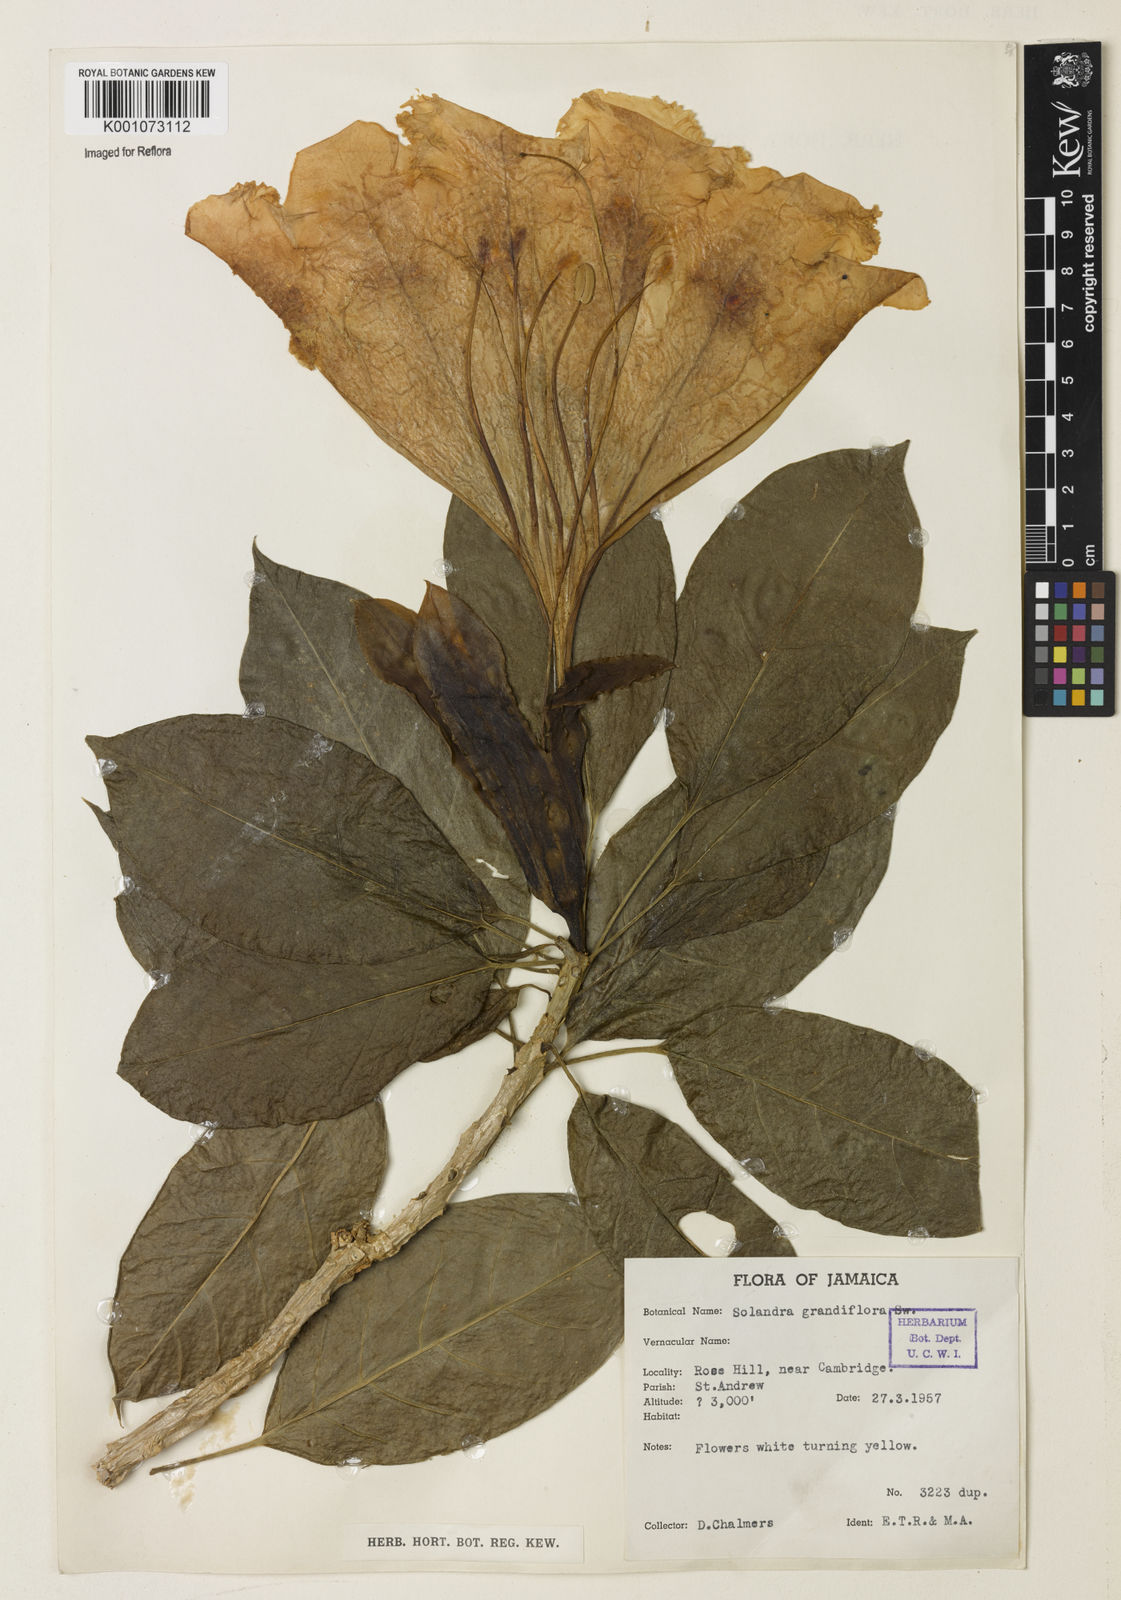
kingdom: Plantae
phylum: Tracheophyta
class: Magnoliopsida
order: Solanales
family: Solanaceae
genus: Solandra
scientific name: Solandra grandiflora
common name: Showy chalicevine
